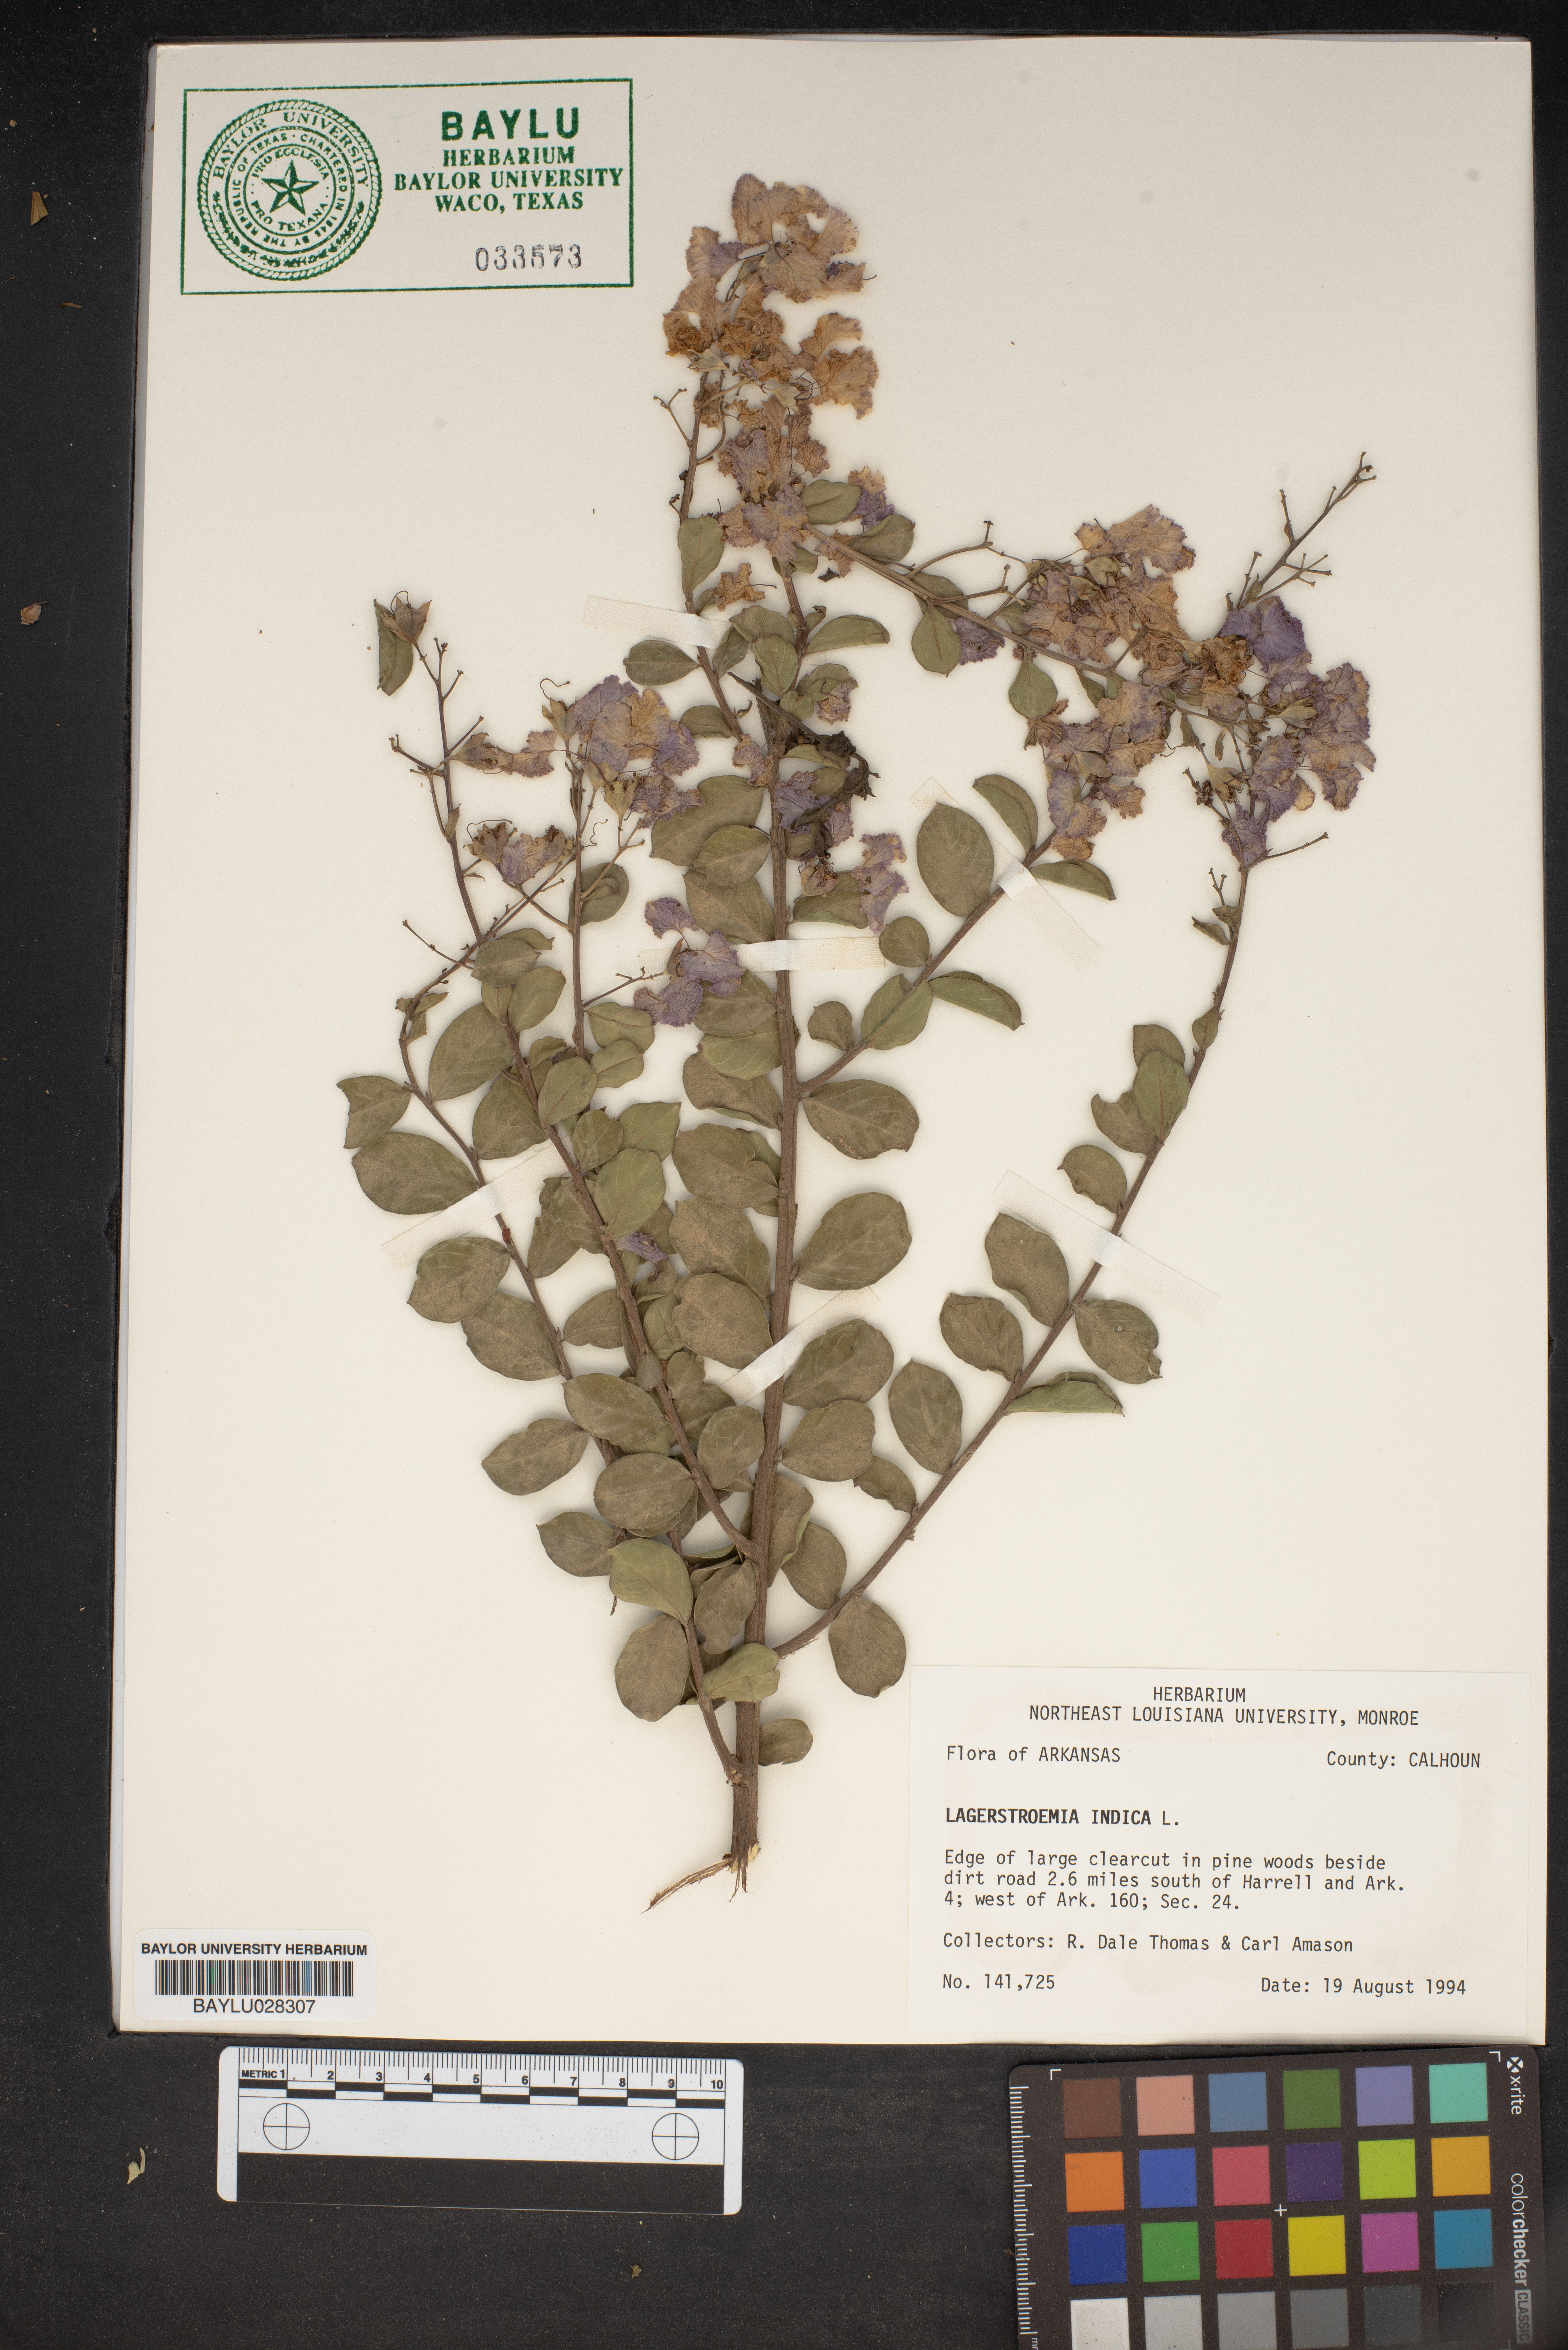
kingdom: Plantae
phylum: Tracheophyta
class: Magnoliopsida
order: Myrtales
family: Lythraceae
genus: Lagerstroemia
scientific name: Lagerstroemia indica
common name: Crape-myrtle
